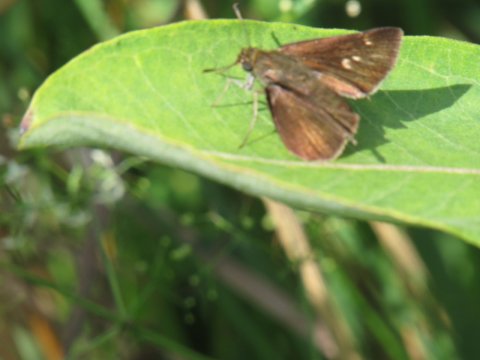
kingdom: Animalia
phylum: Arthropoda
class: Insecta
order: Lepidoptera
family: Hesperiidae
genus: Euphyes
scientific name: Euphyes vestris
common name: Dun Skipper
